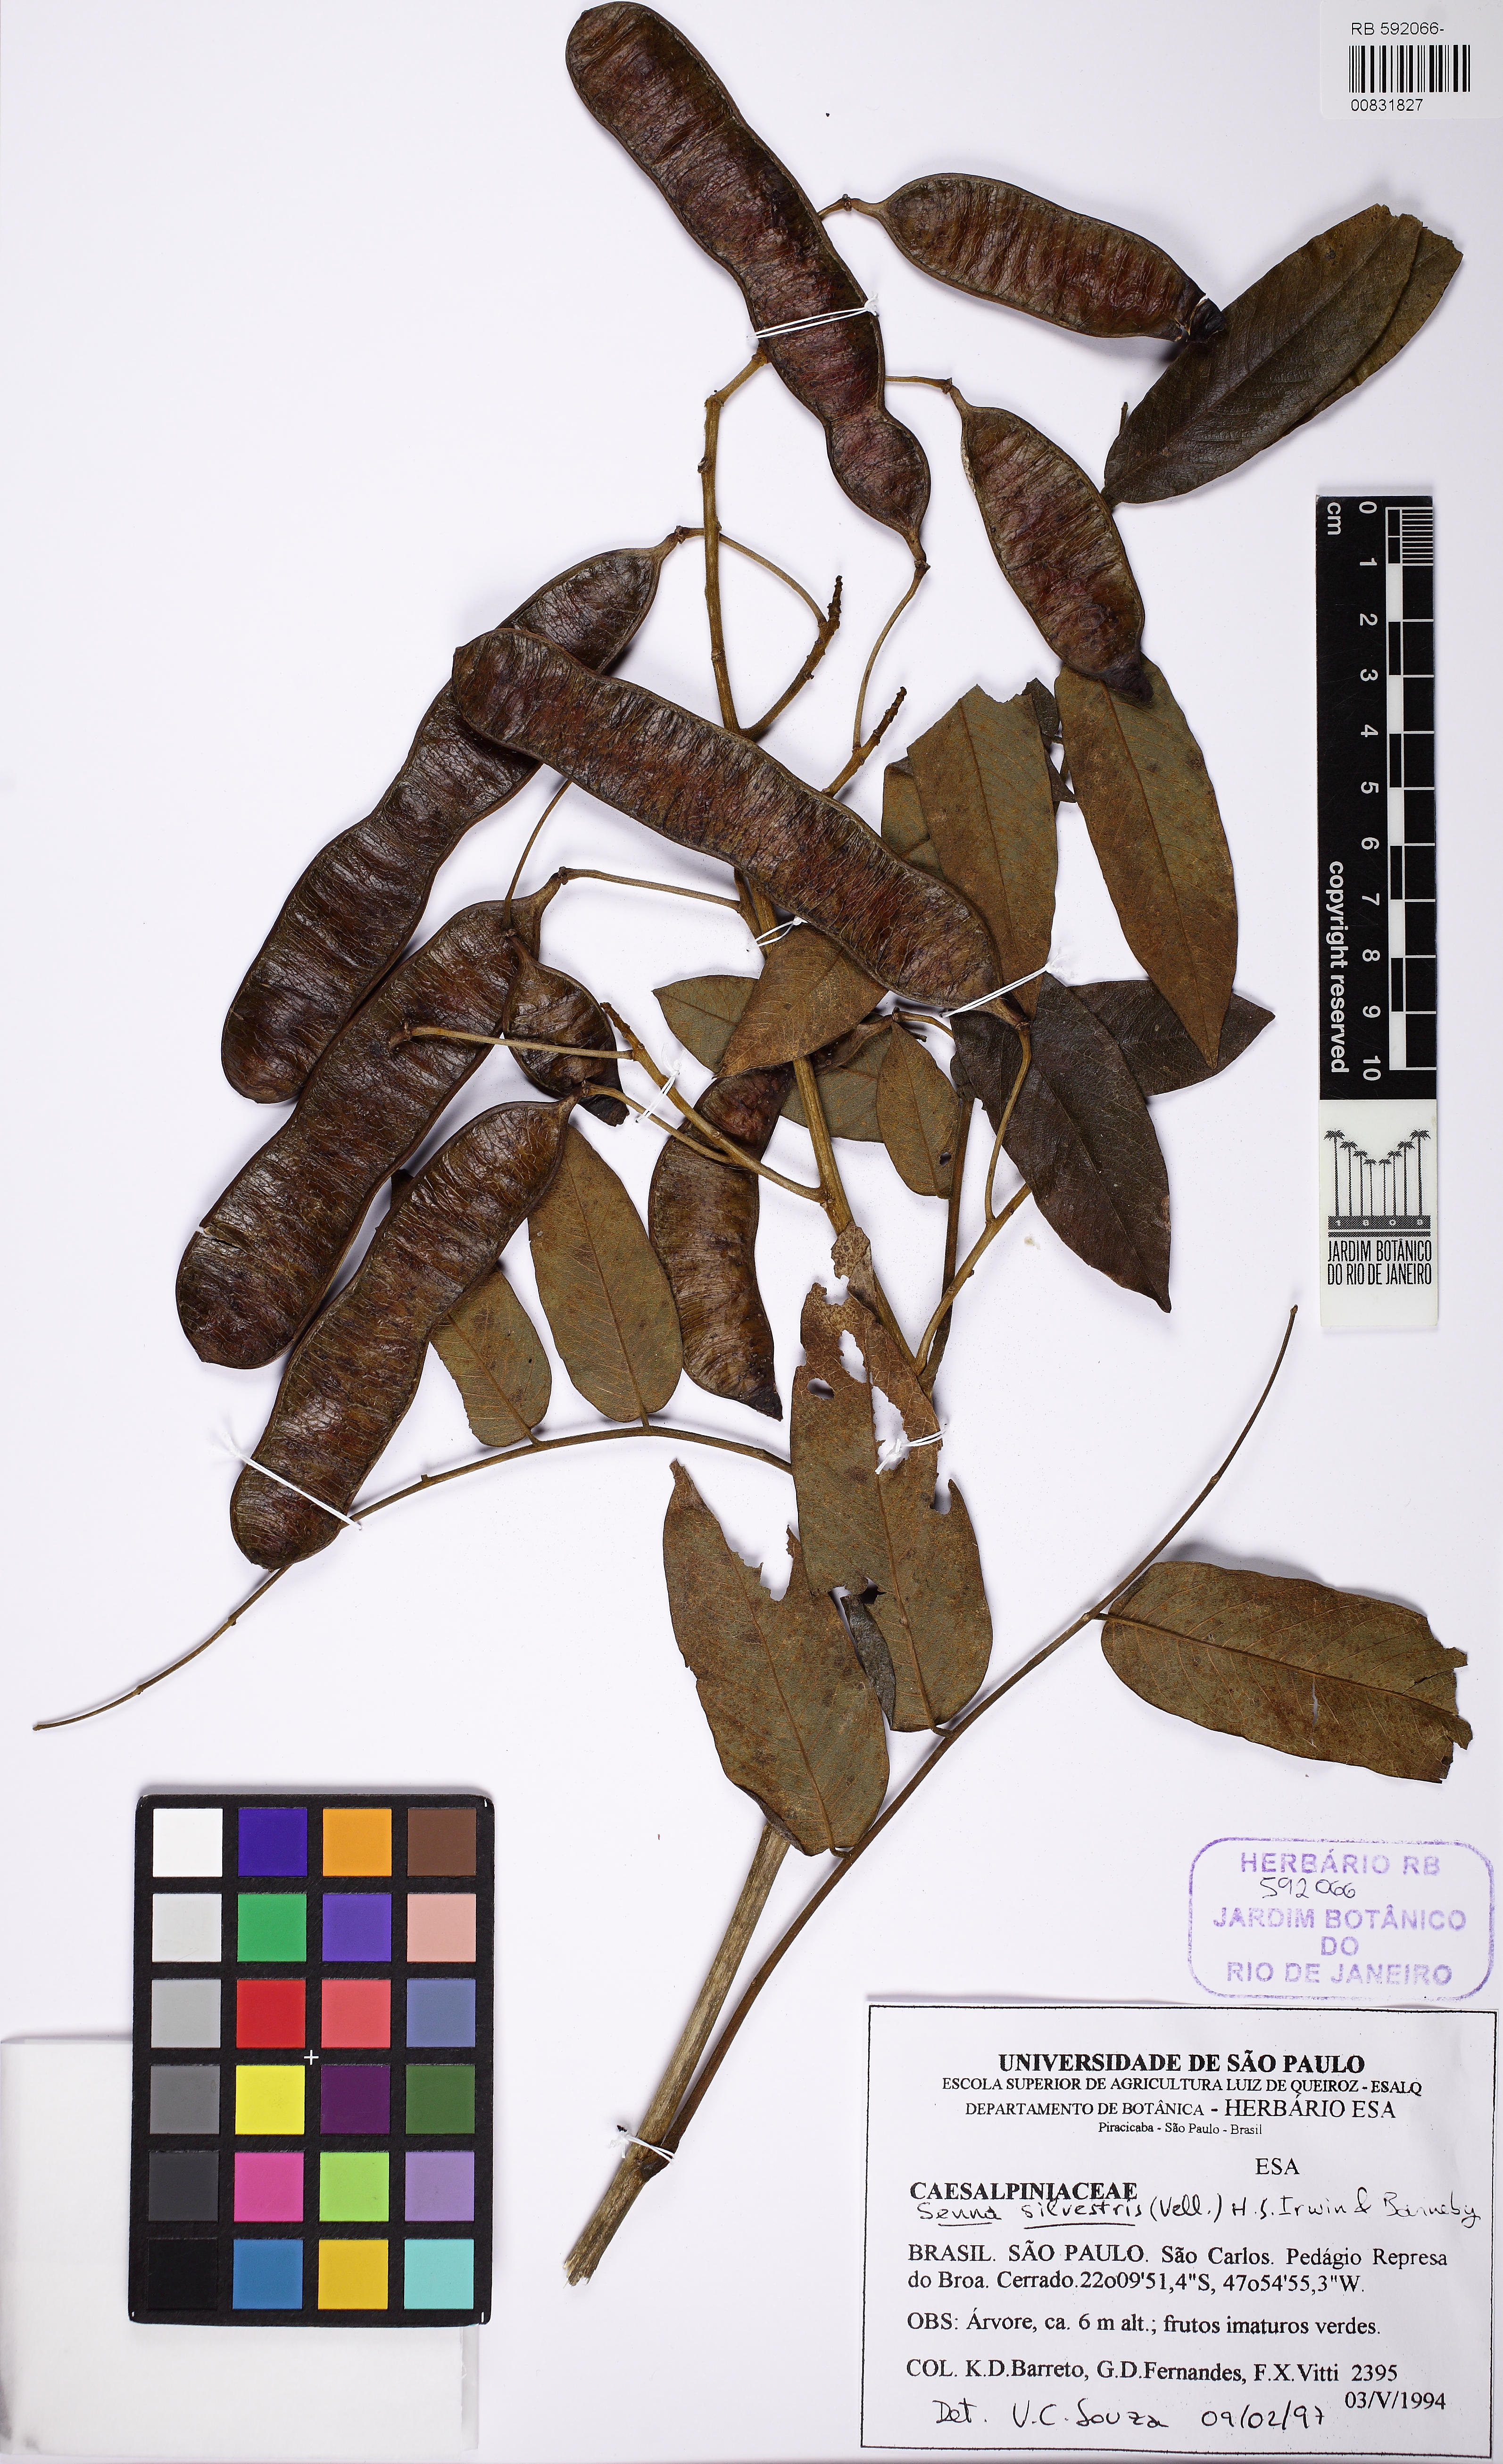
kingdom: Plantae
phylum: Tracheophyta
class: Magnoliopsida
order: Fabales
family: Fabaceae
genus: Senna
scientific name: Senna silvestris
